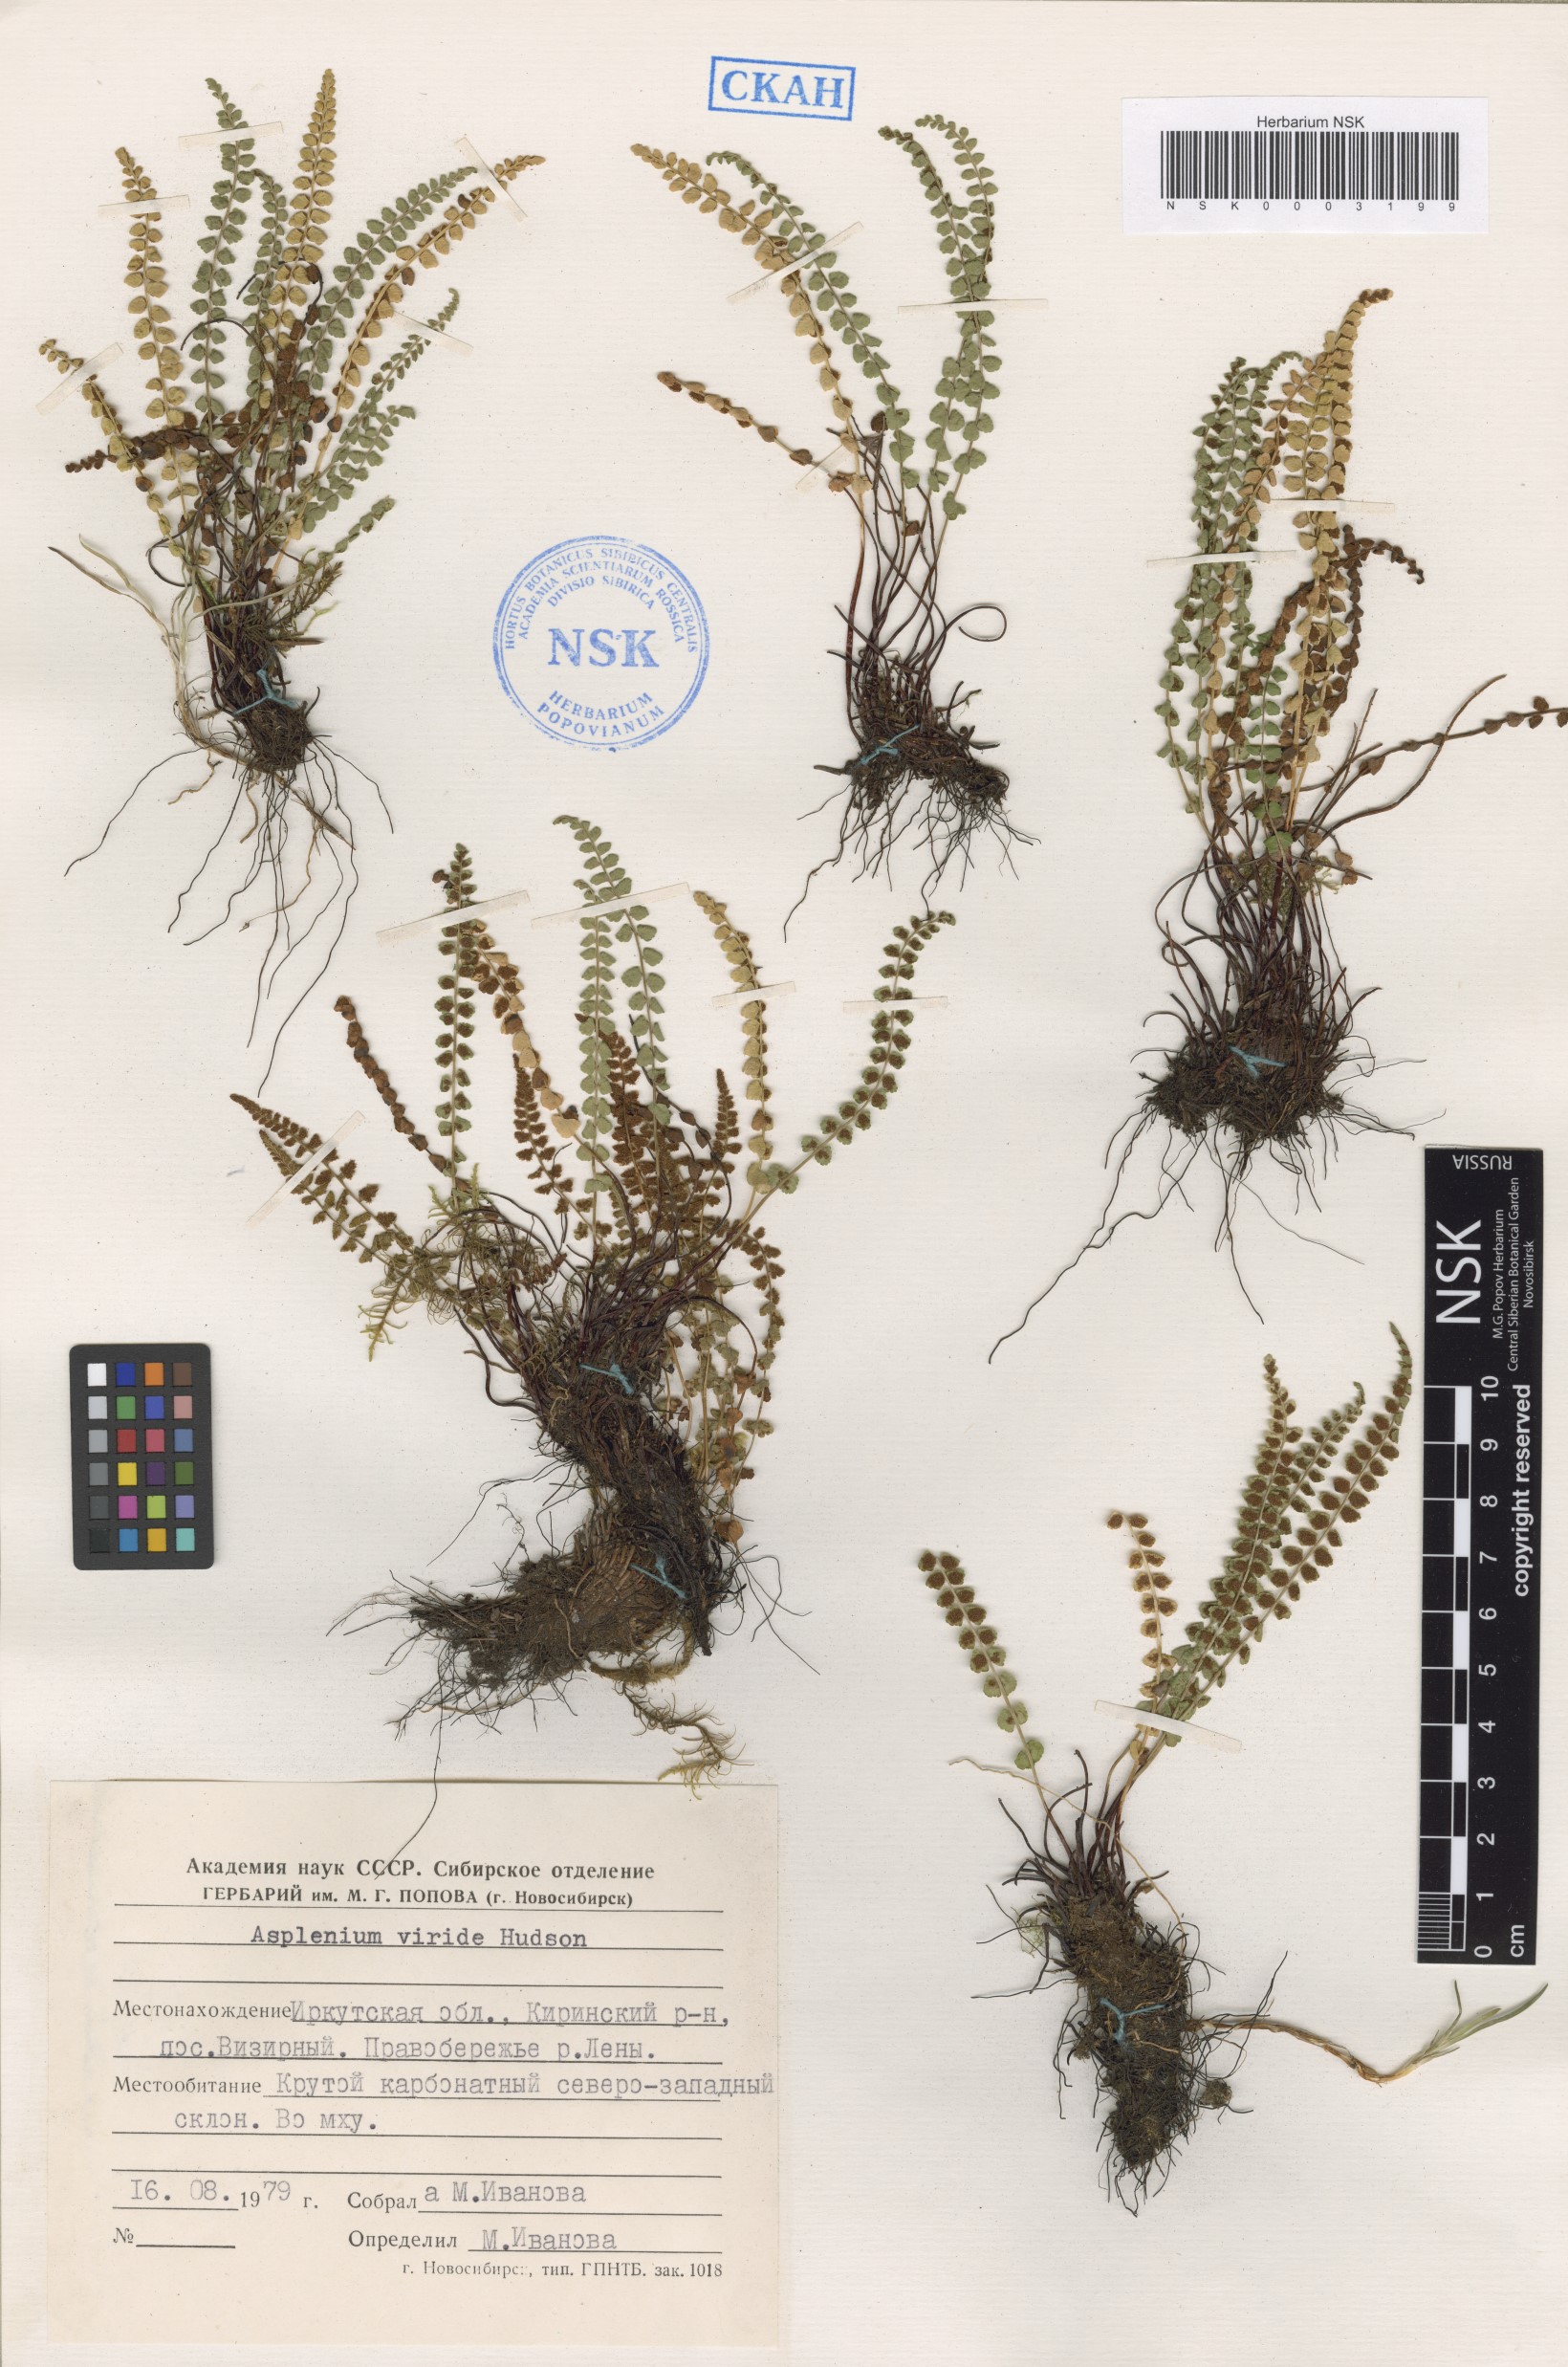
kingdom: Plantae
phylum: Tracheophyta
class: Polypodiopsida
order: Polypodiales
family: Aspleniaceae
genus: Asplenium
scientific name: Asplenium viride
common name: Green spleenwort
